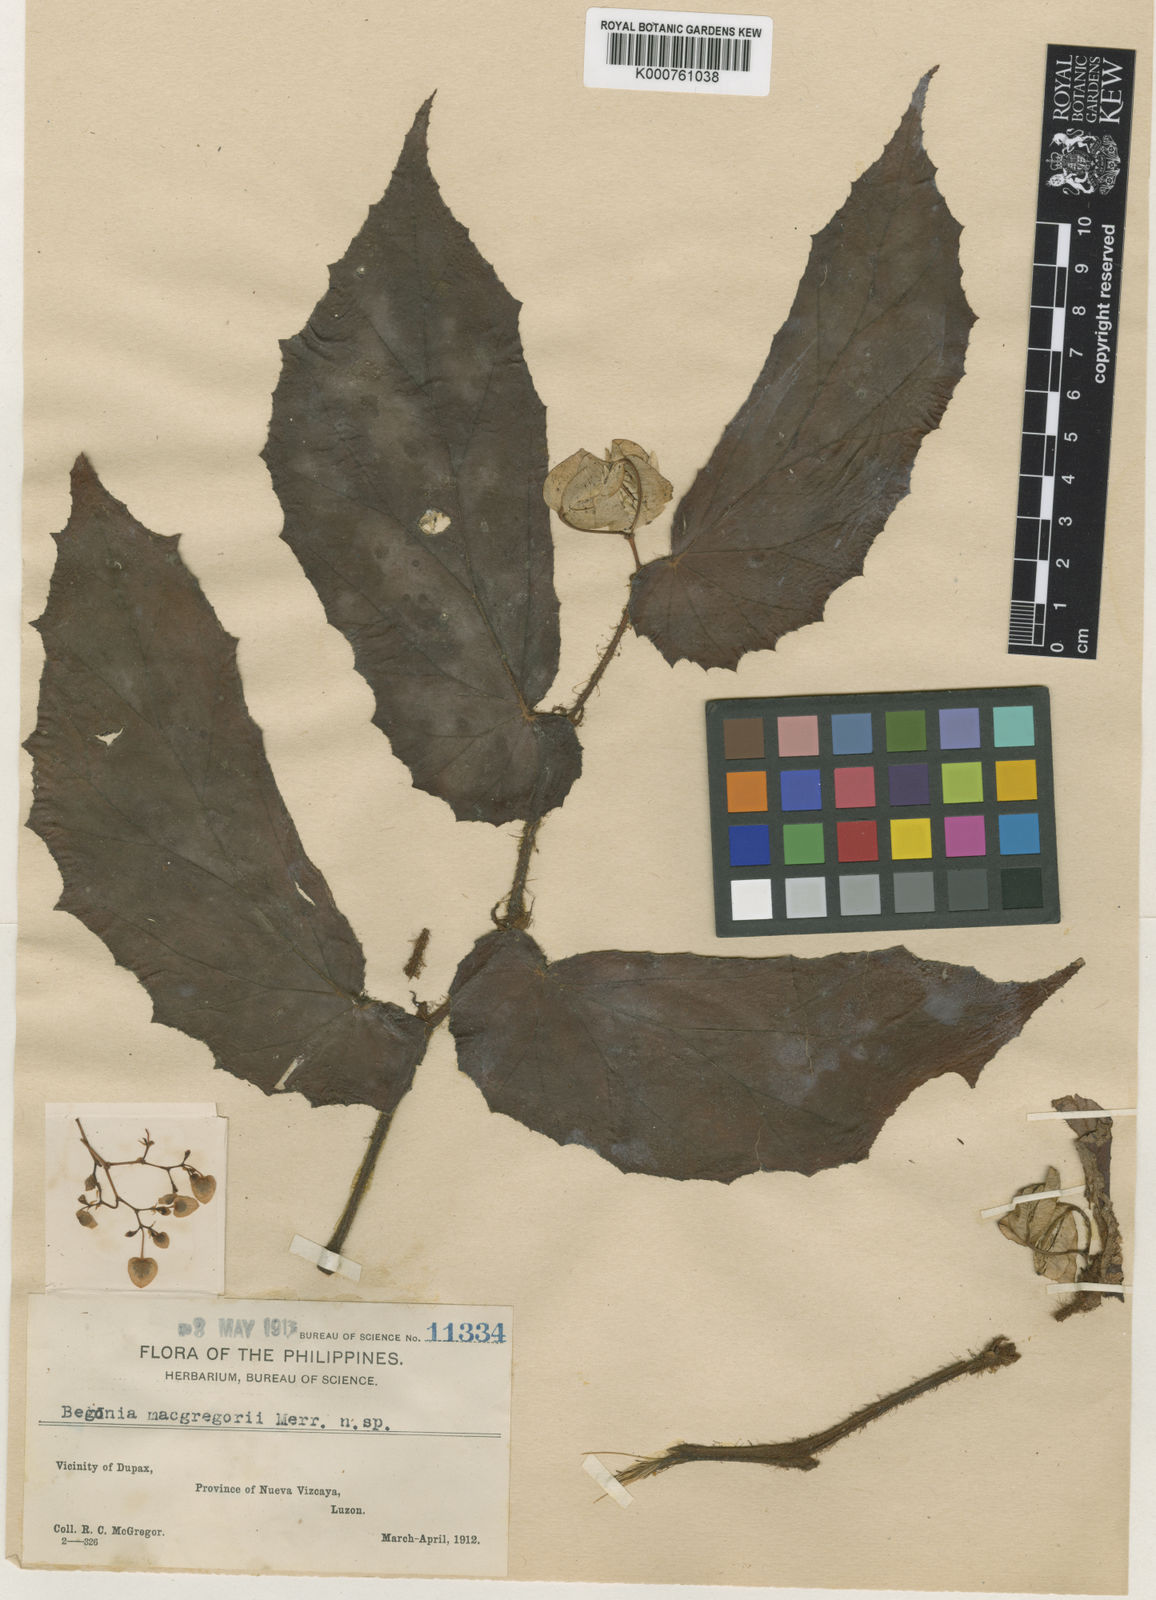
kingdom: Plantae
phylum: Tracheophyta
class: Magnoliopsida
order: Cucurbitales
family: Begoniaceae
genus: Begonia
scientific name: Begonia macgregorii
